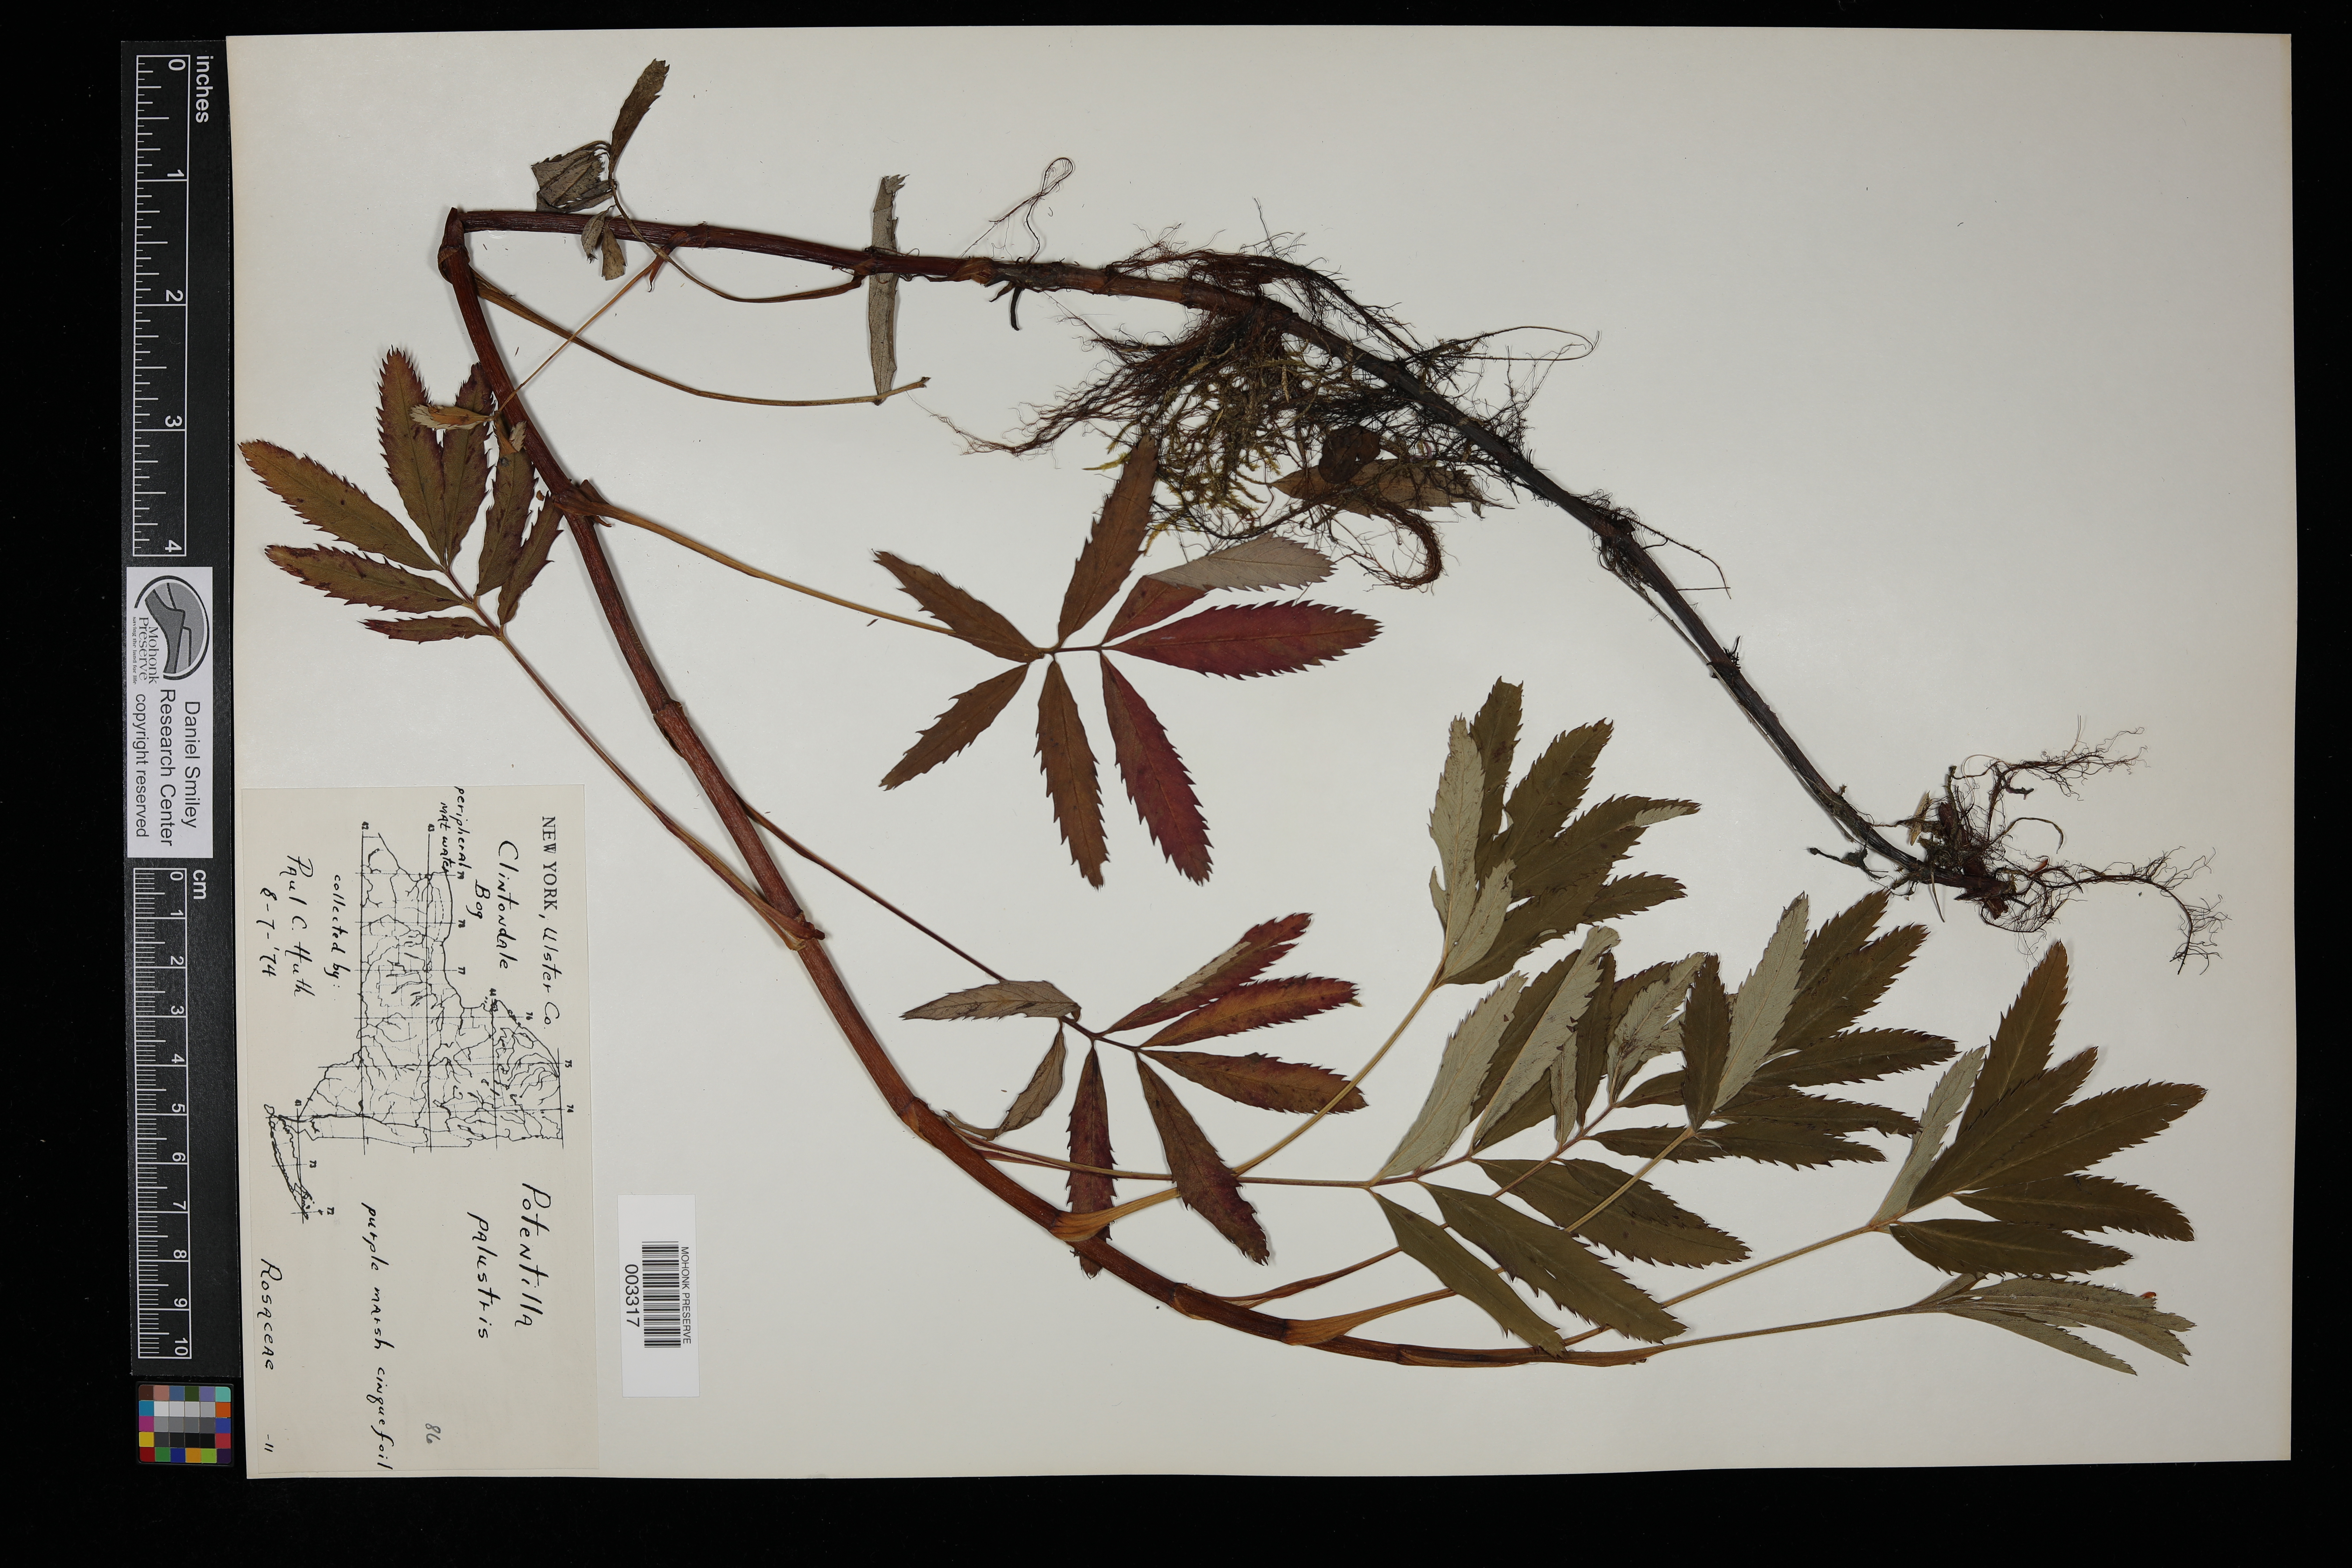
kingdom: Plantae
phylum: Tracheophyta
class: Magnoliopsida
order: Rosales
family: Rosaceae
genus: Comarum
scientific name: Comarum palustre
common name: Marsh cinquefoil
